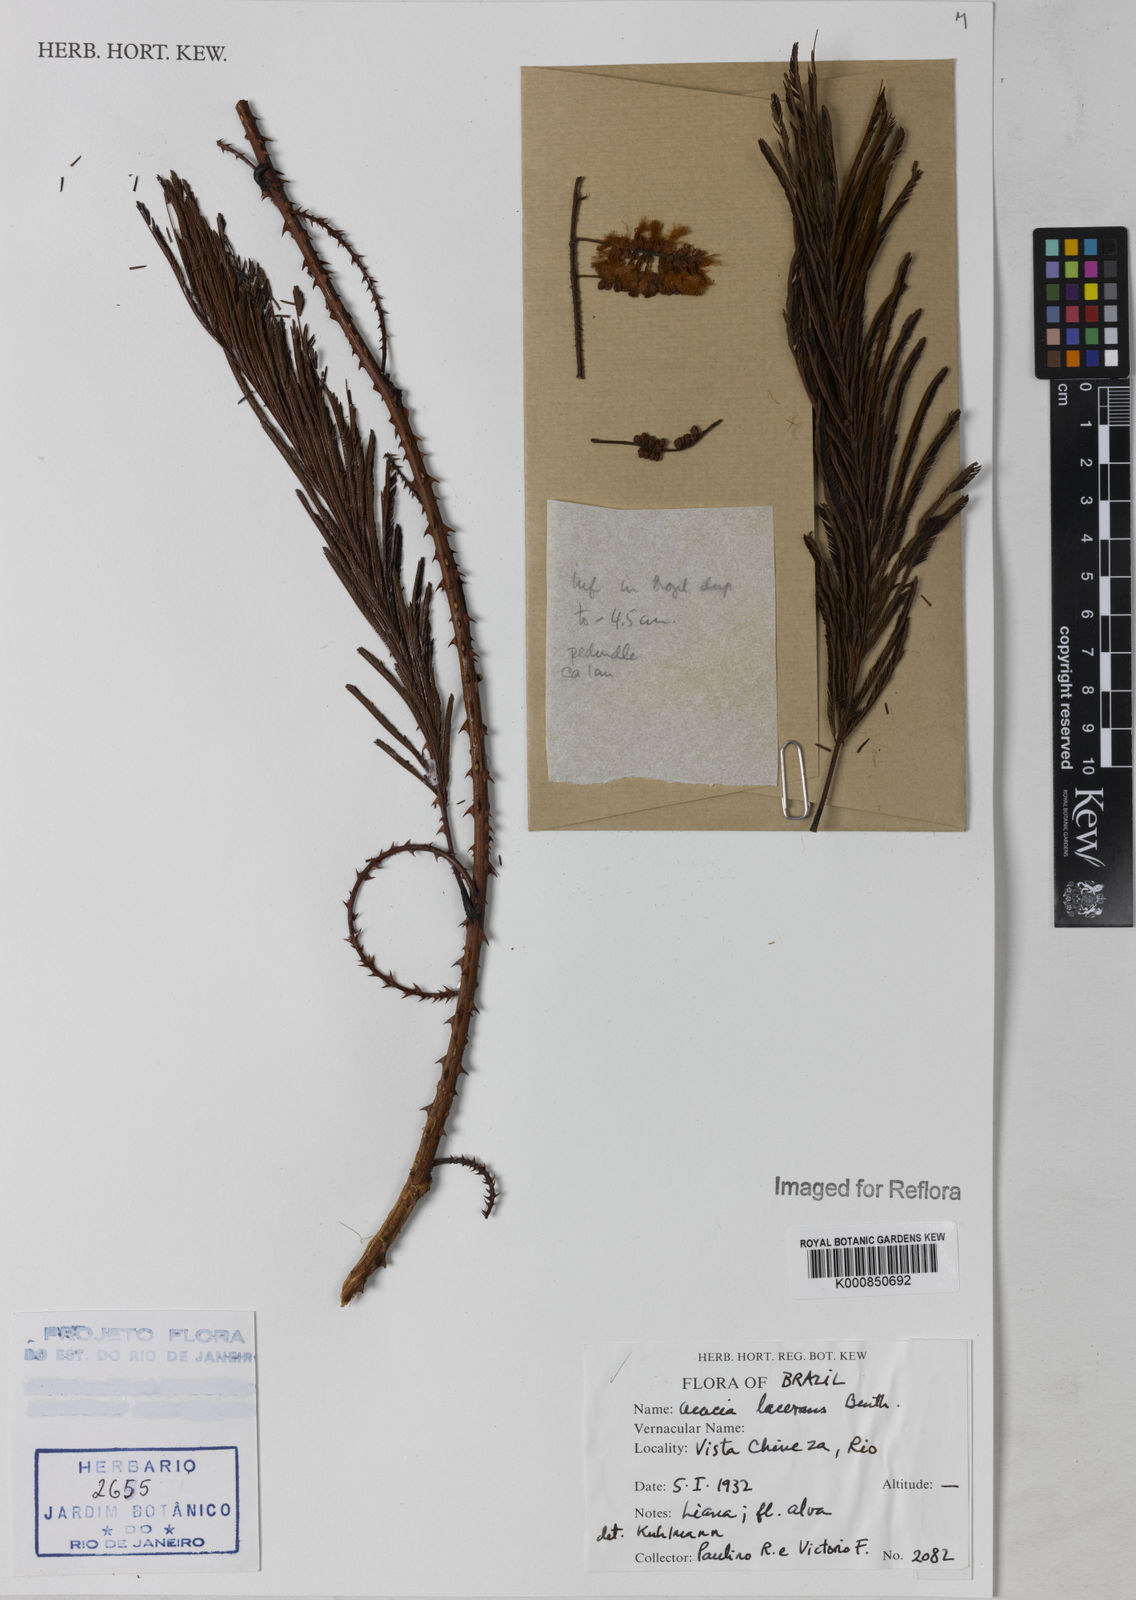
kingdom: Plantae
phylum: Tracheophyta
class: Magnoliopsida
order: Fabales
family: Fabaceae
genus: Senegalia
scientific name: Senegalia lacerans
